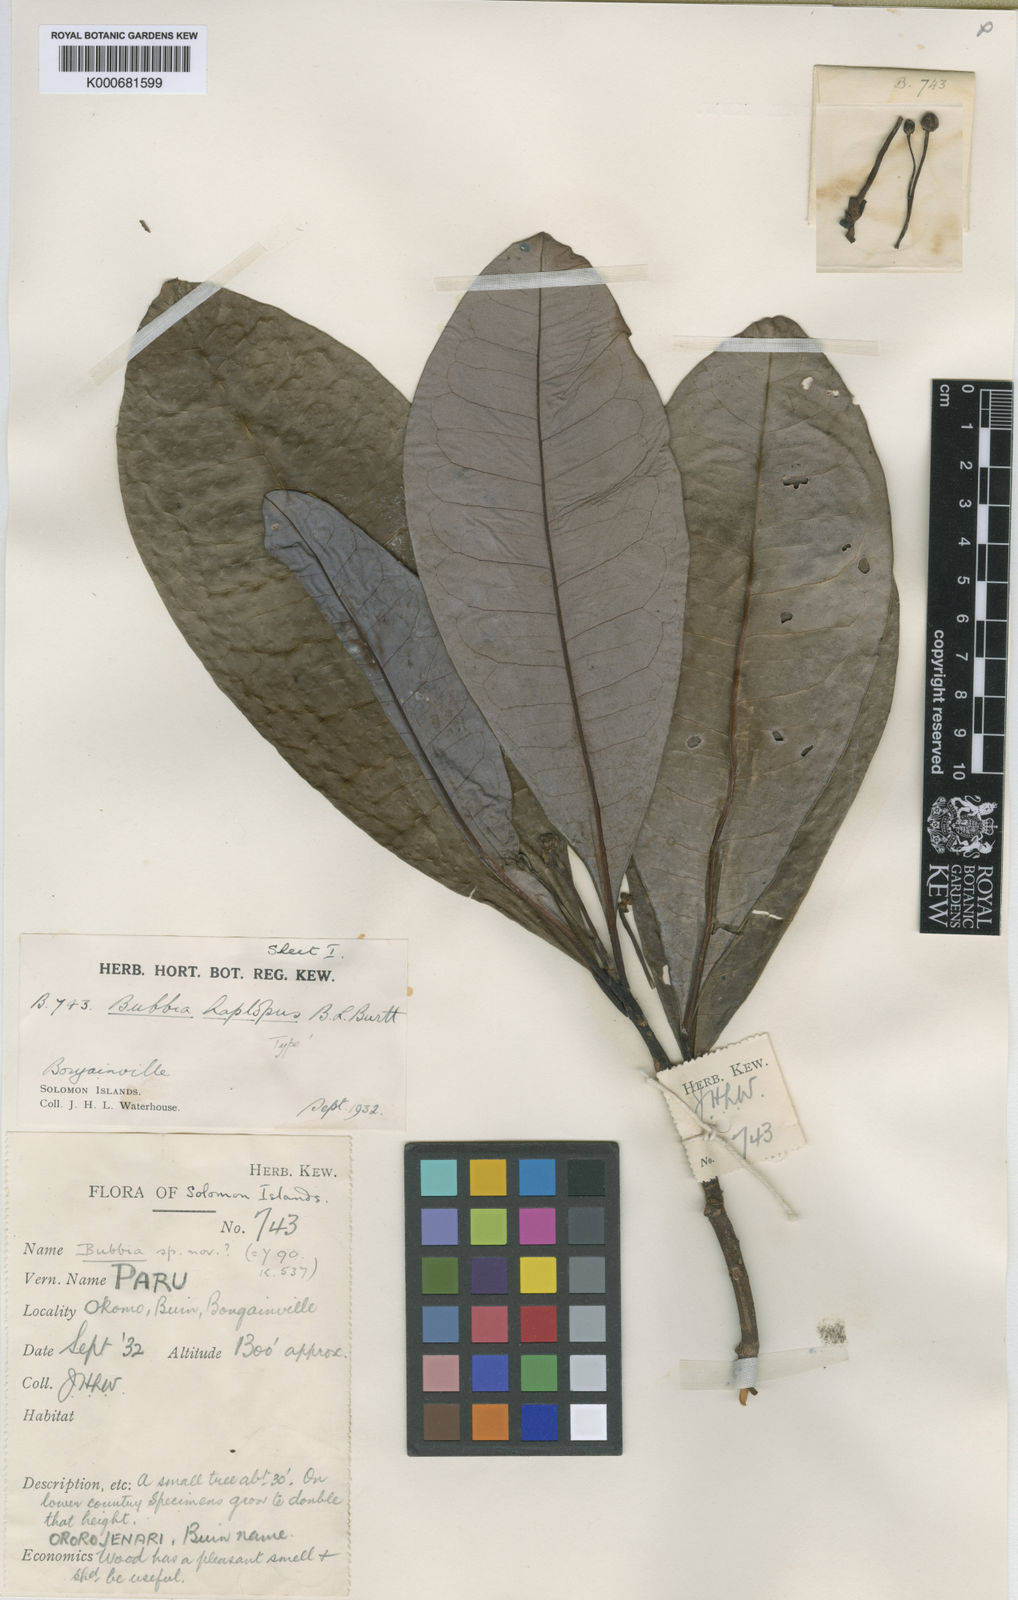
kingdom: Plantae
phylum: Tracheophyta
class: Magnoliopsida
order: Canellales
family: Winteraceae
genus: Zygogynum
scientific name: Zygogynum haplopus
